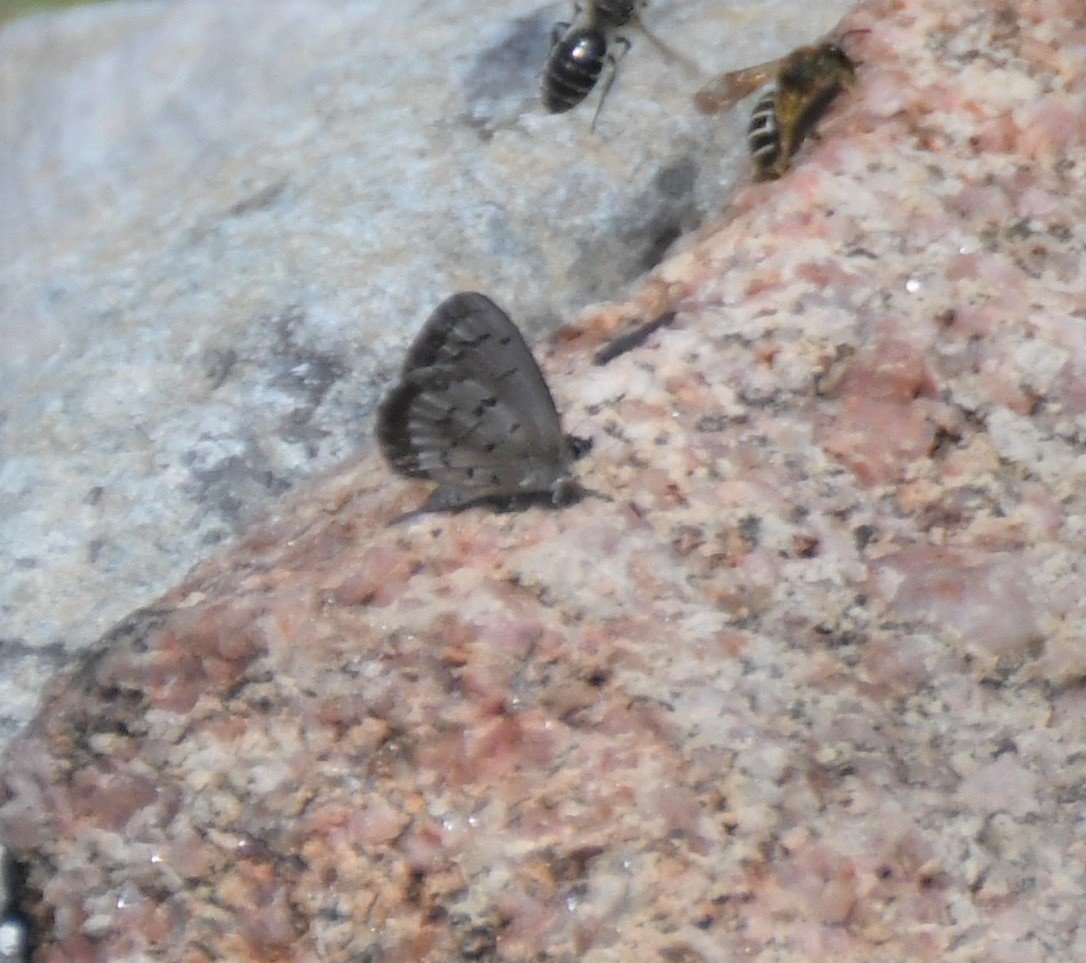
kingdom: Animalia
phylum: Arthropoda
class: Insecta
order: Lepidoptera
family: Lycaenidae
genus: Celastrina
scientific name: Celastrina lucia
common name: Northern Spring Azure
